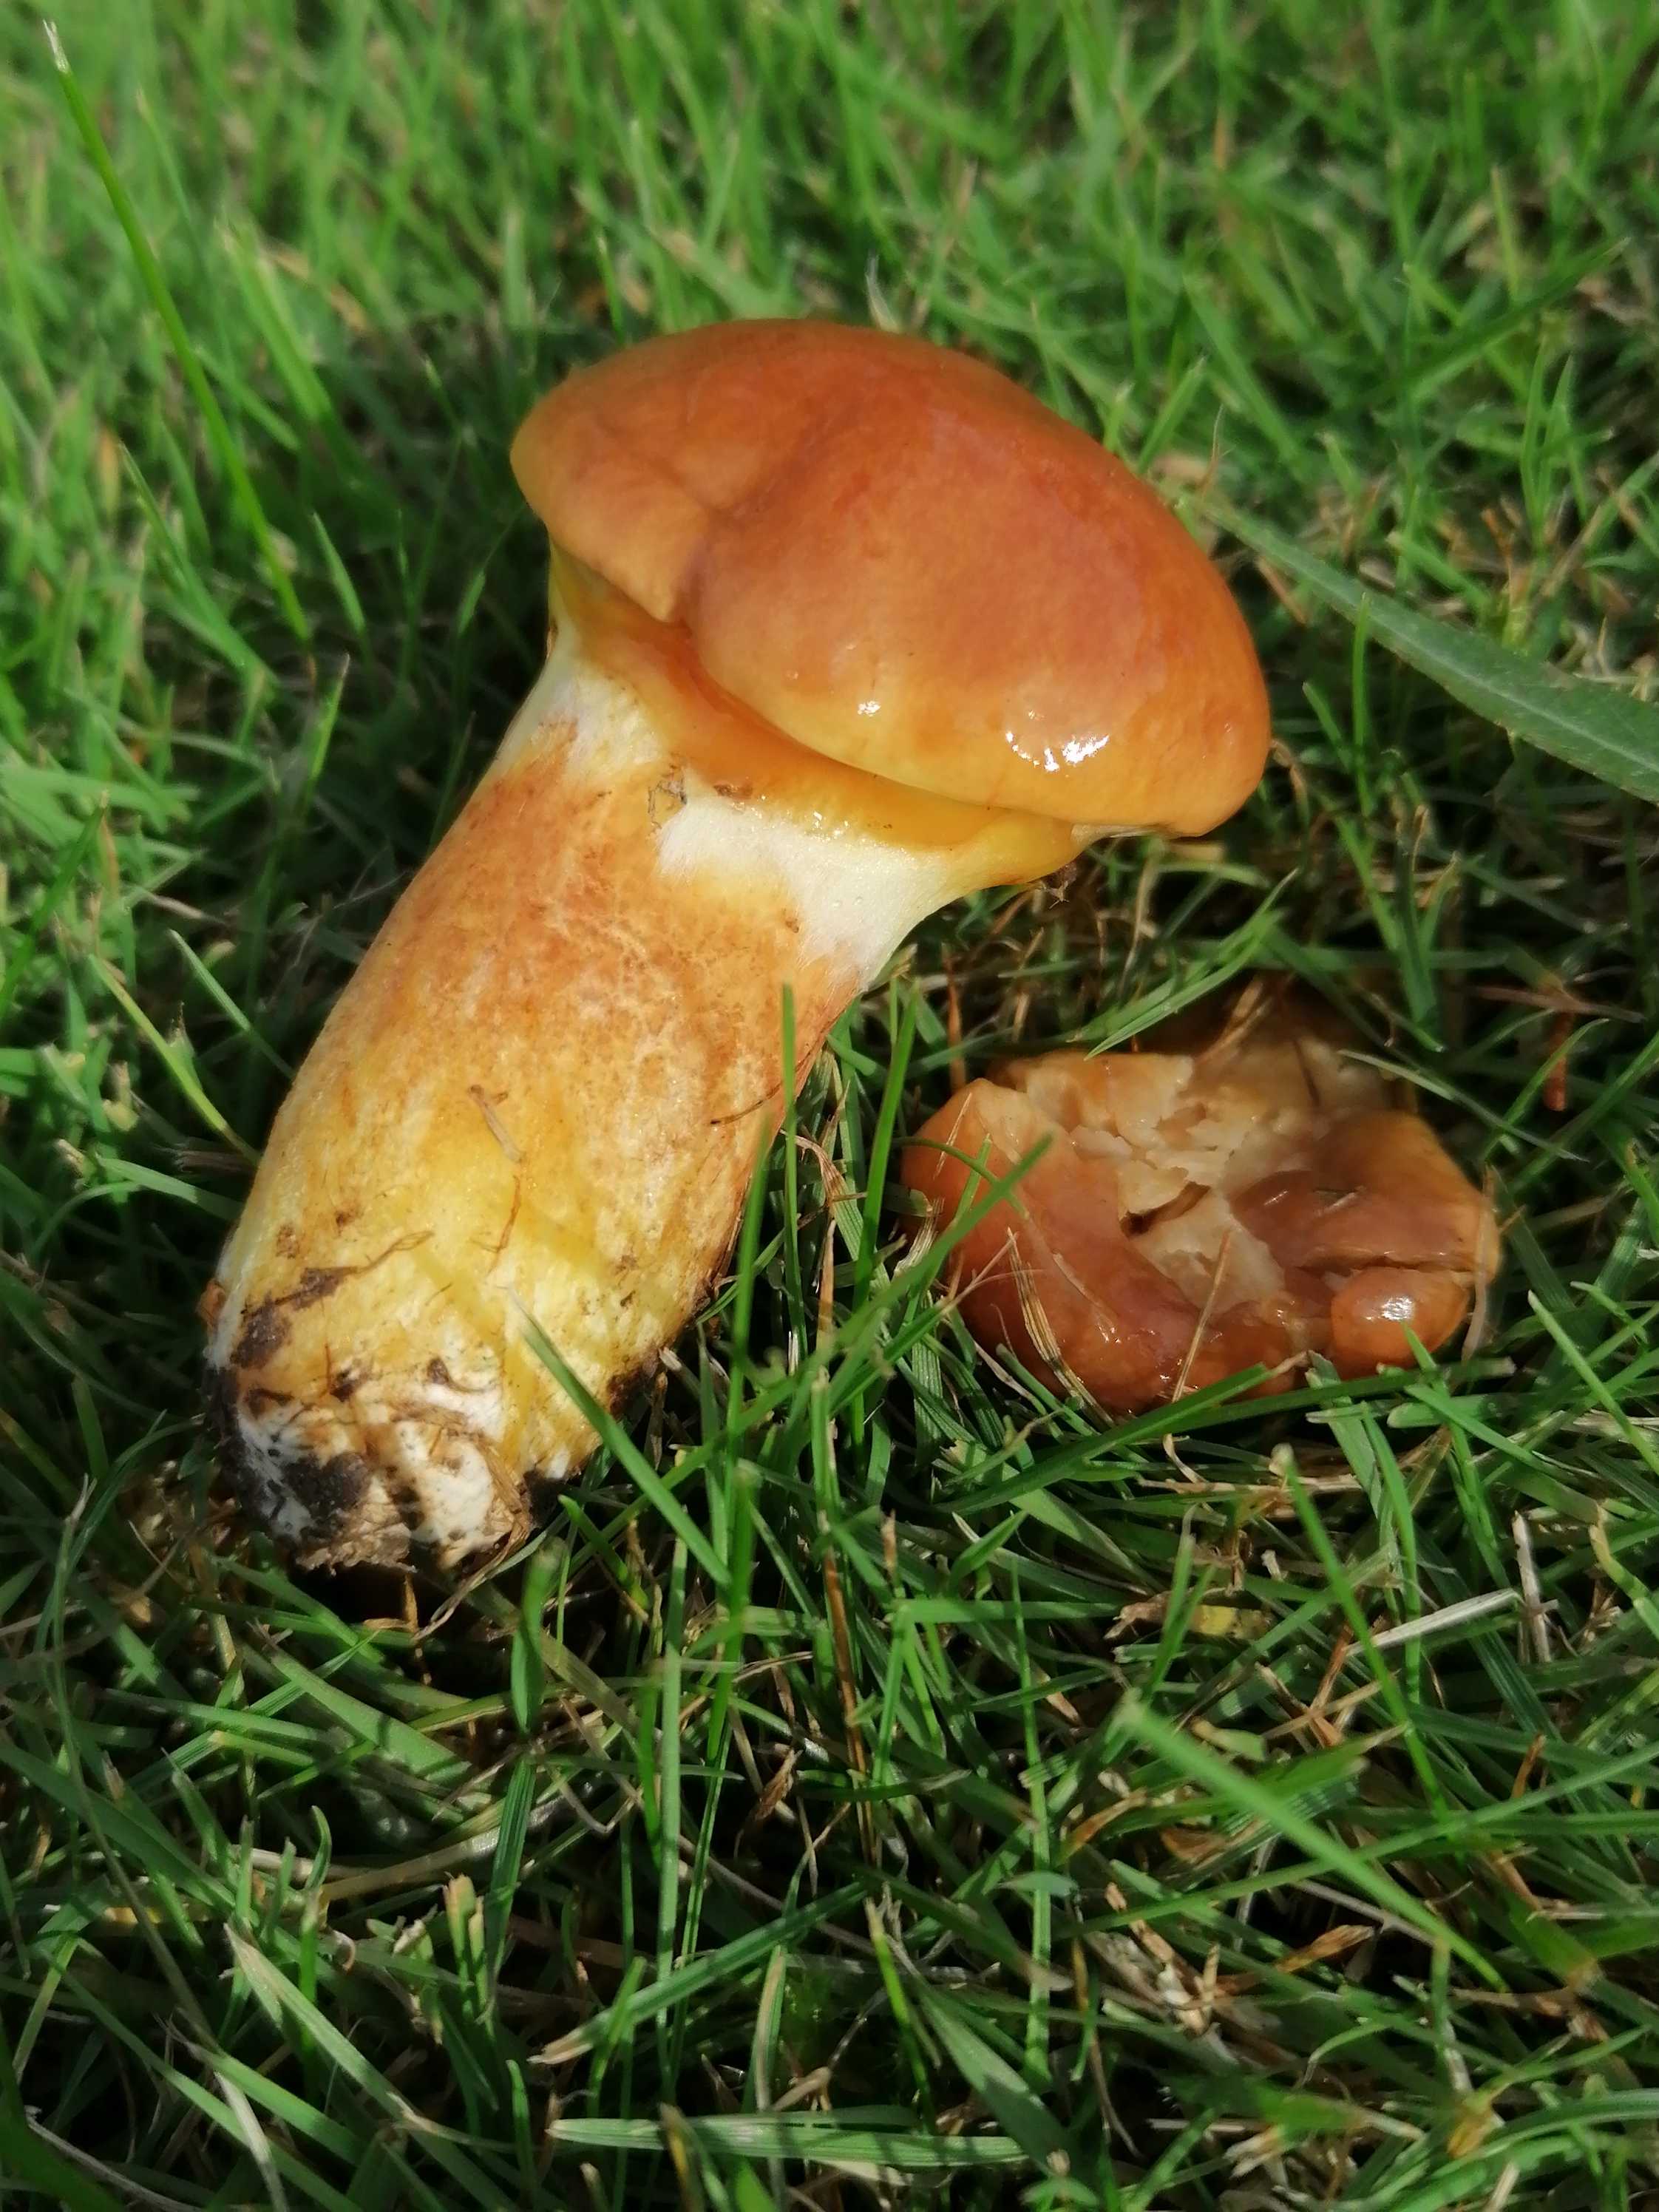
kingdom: Fungi
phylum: Basidiomycota
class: Agaricomycetes
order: Boletales
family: Suillaceae
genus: Suillus
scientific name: Suillus grevillei
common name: lærke-slimrørhat
